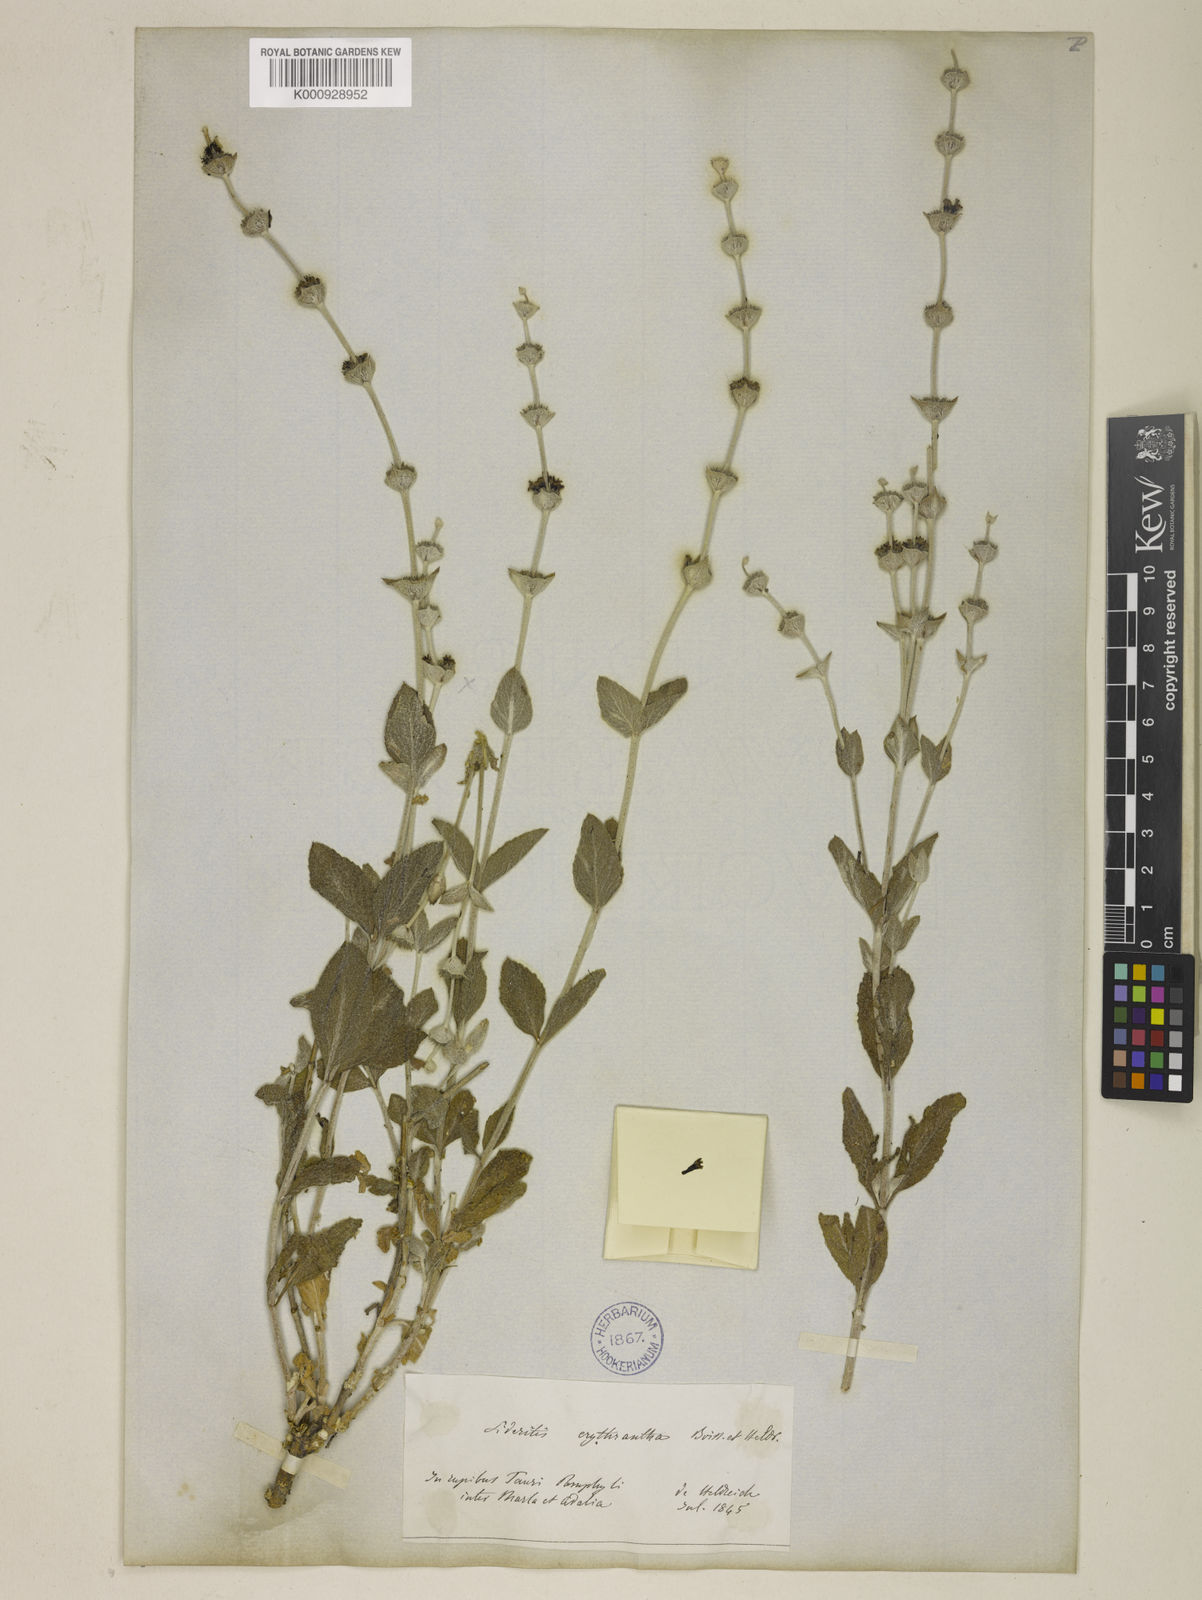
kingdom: Plantae
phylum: Tracheophyta
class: Magnoliopsida
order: Lamiales
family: Lamiaceae
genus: Sideritis
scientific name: Sideritis erythrantha
